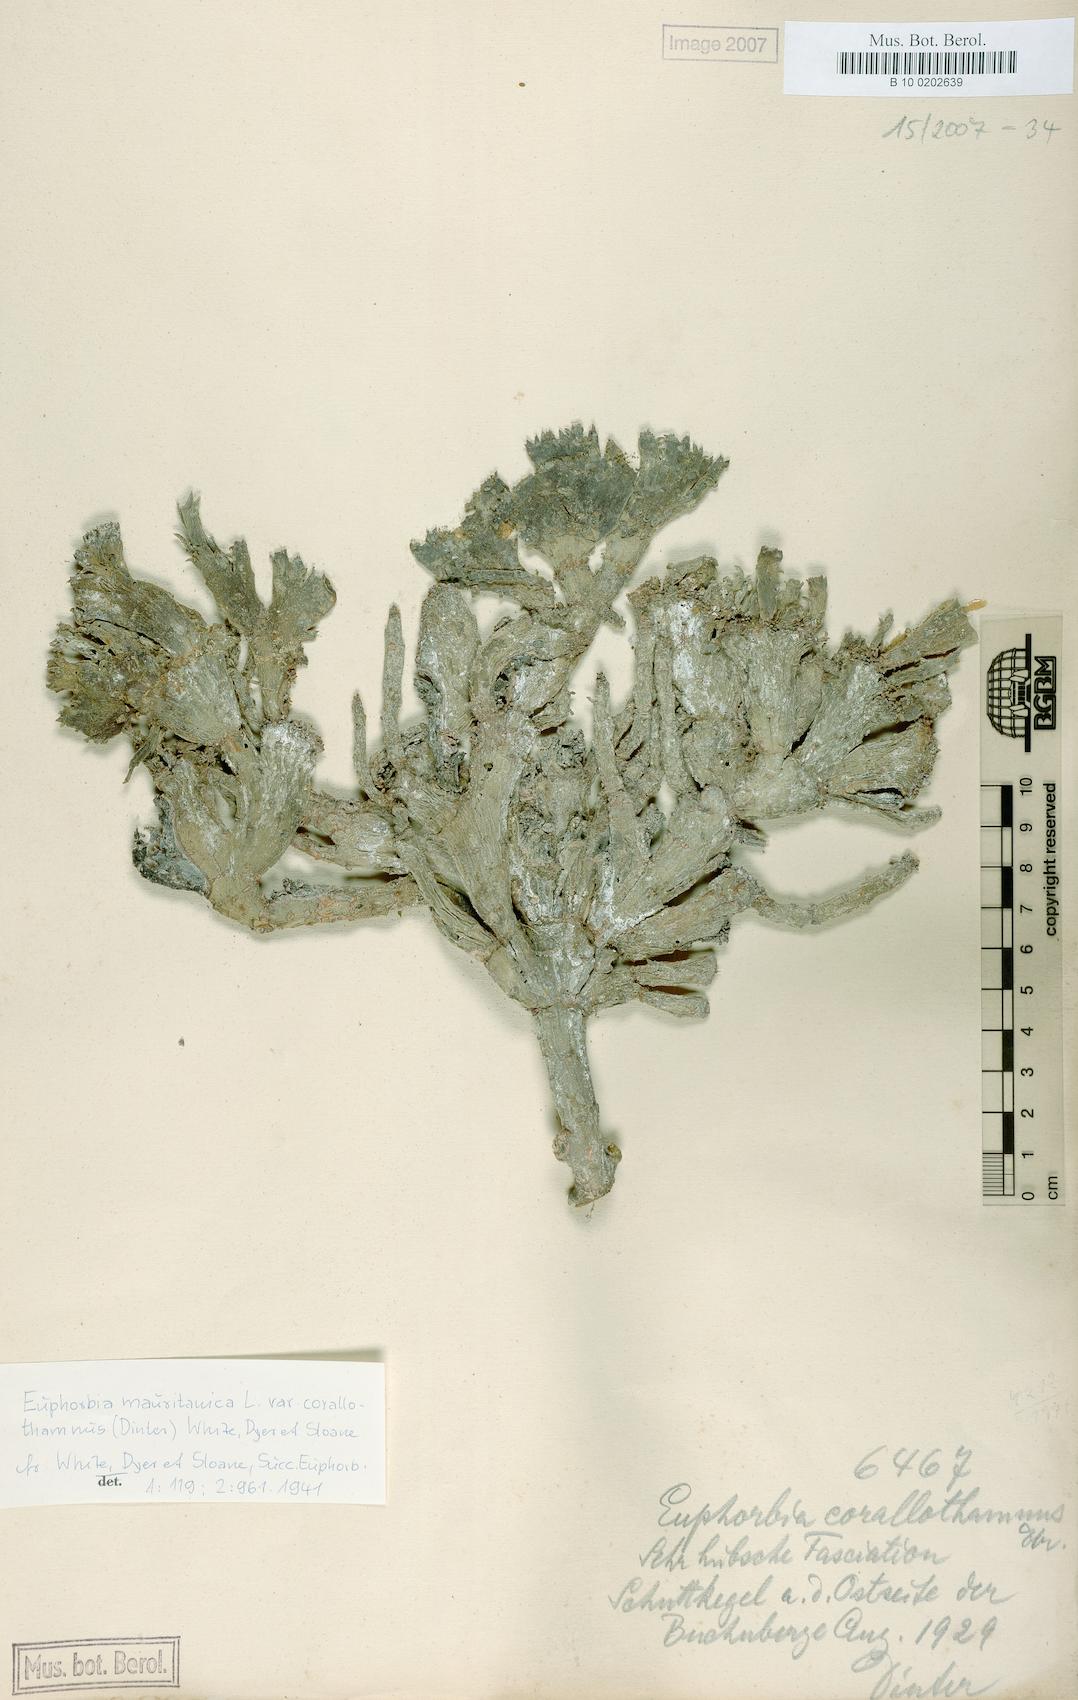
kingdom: Plantae
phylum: Tracheophyta
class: Magnoliopsida
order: Malpighiales
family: Euphorbiaceae
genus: Euphorbia
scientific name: Euphorbia mauritanica
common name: Jackal's-food
